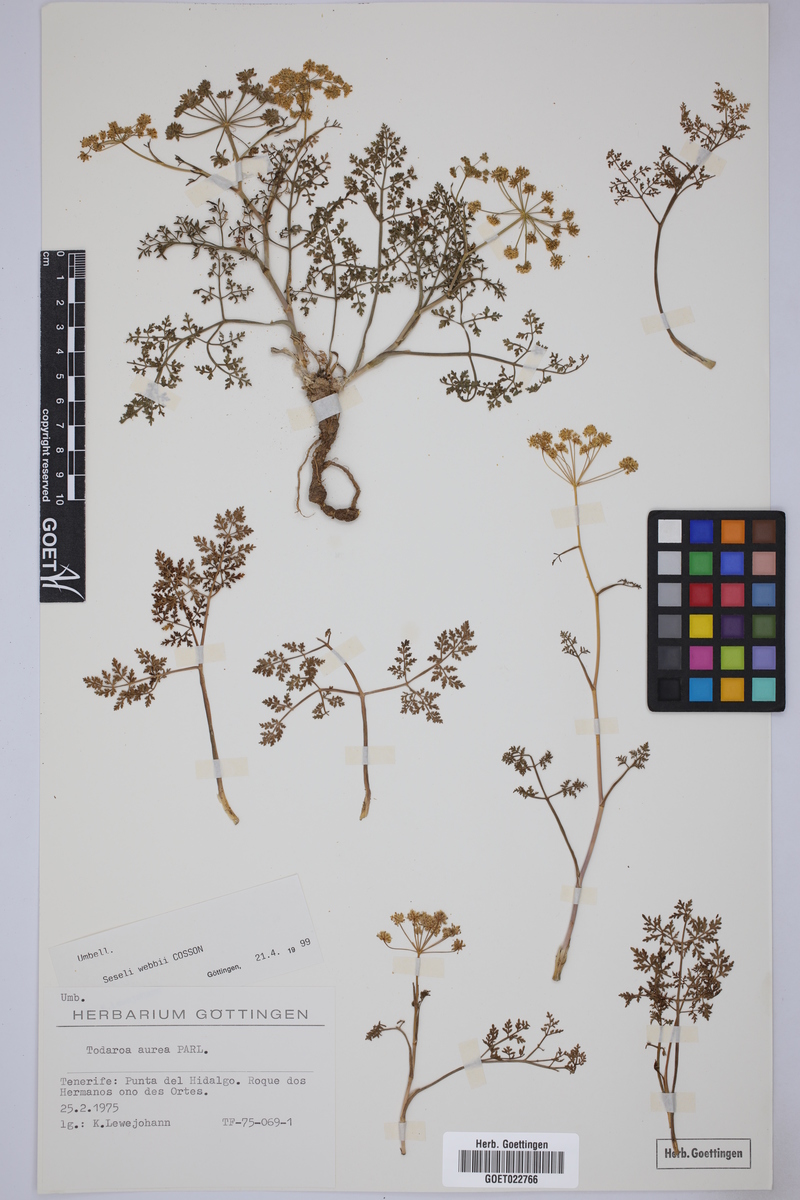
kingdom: Plantae
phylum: Tracheophyta
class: Magnoliopsida
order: Apiales
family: Apiaceae
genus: Rutheopsis
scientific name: Rutheopsis tortuosa
